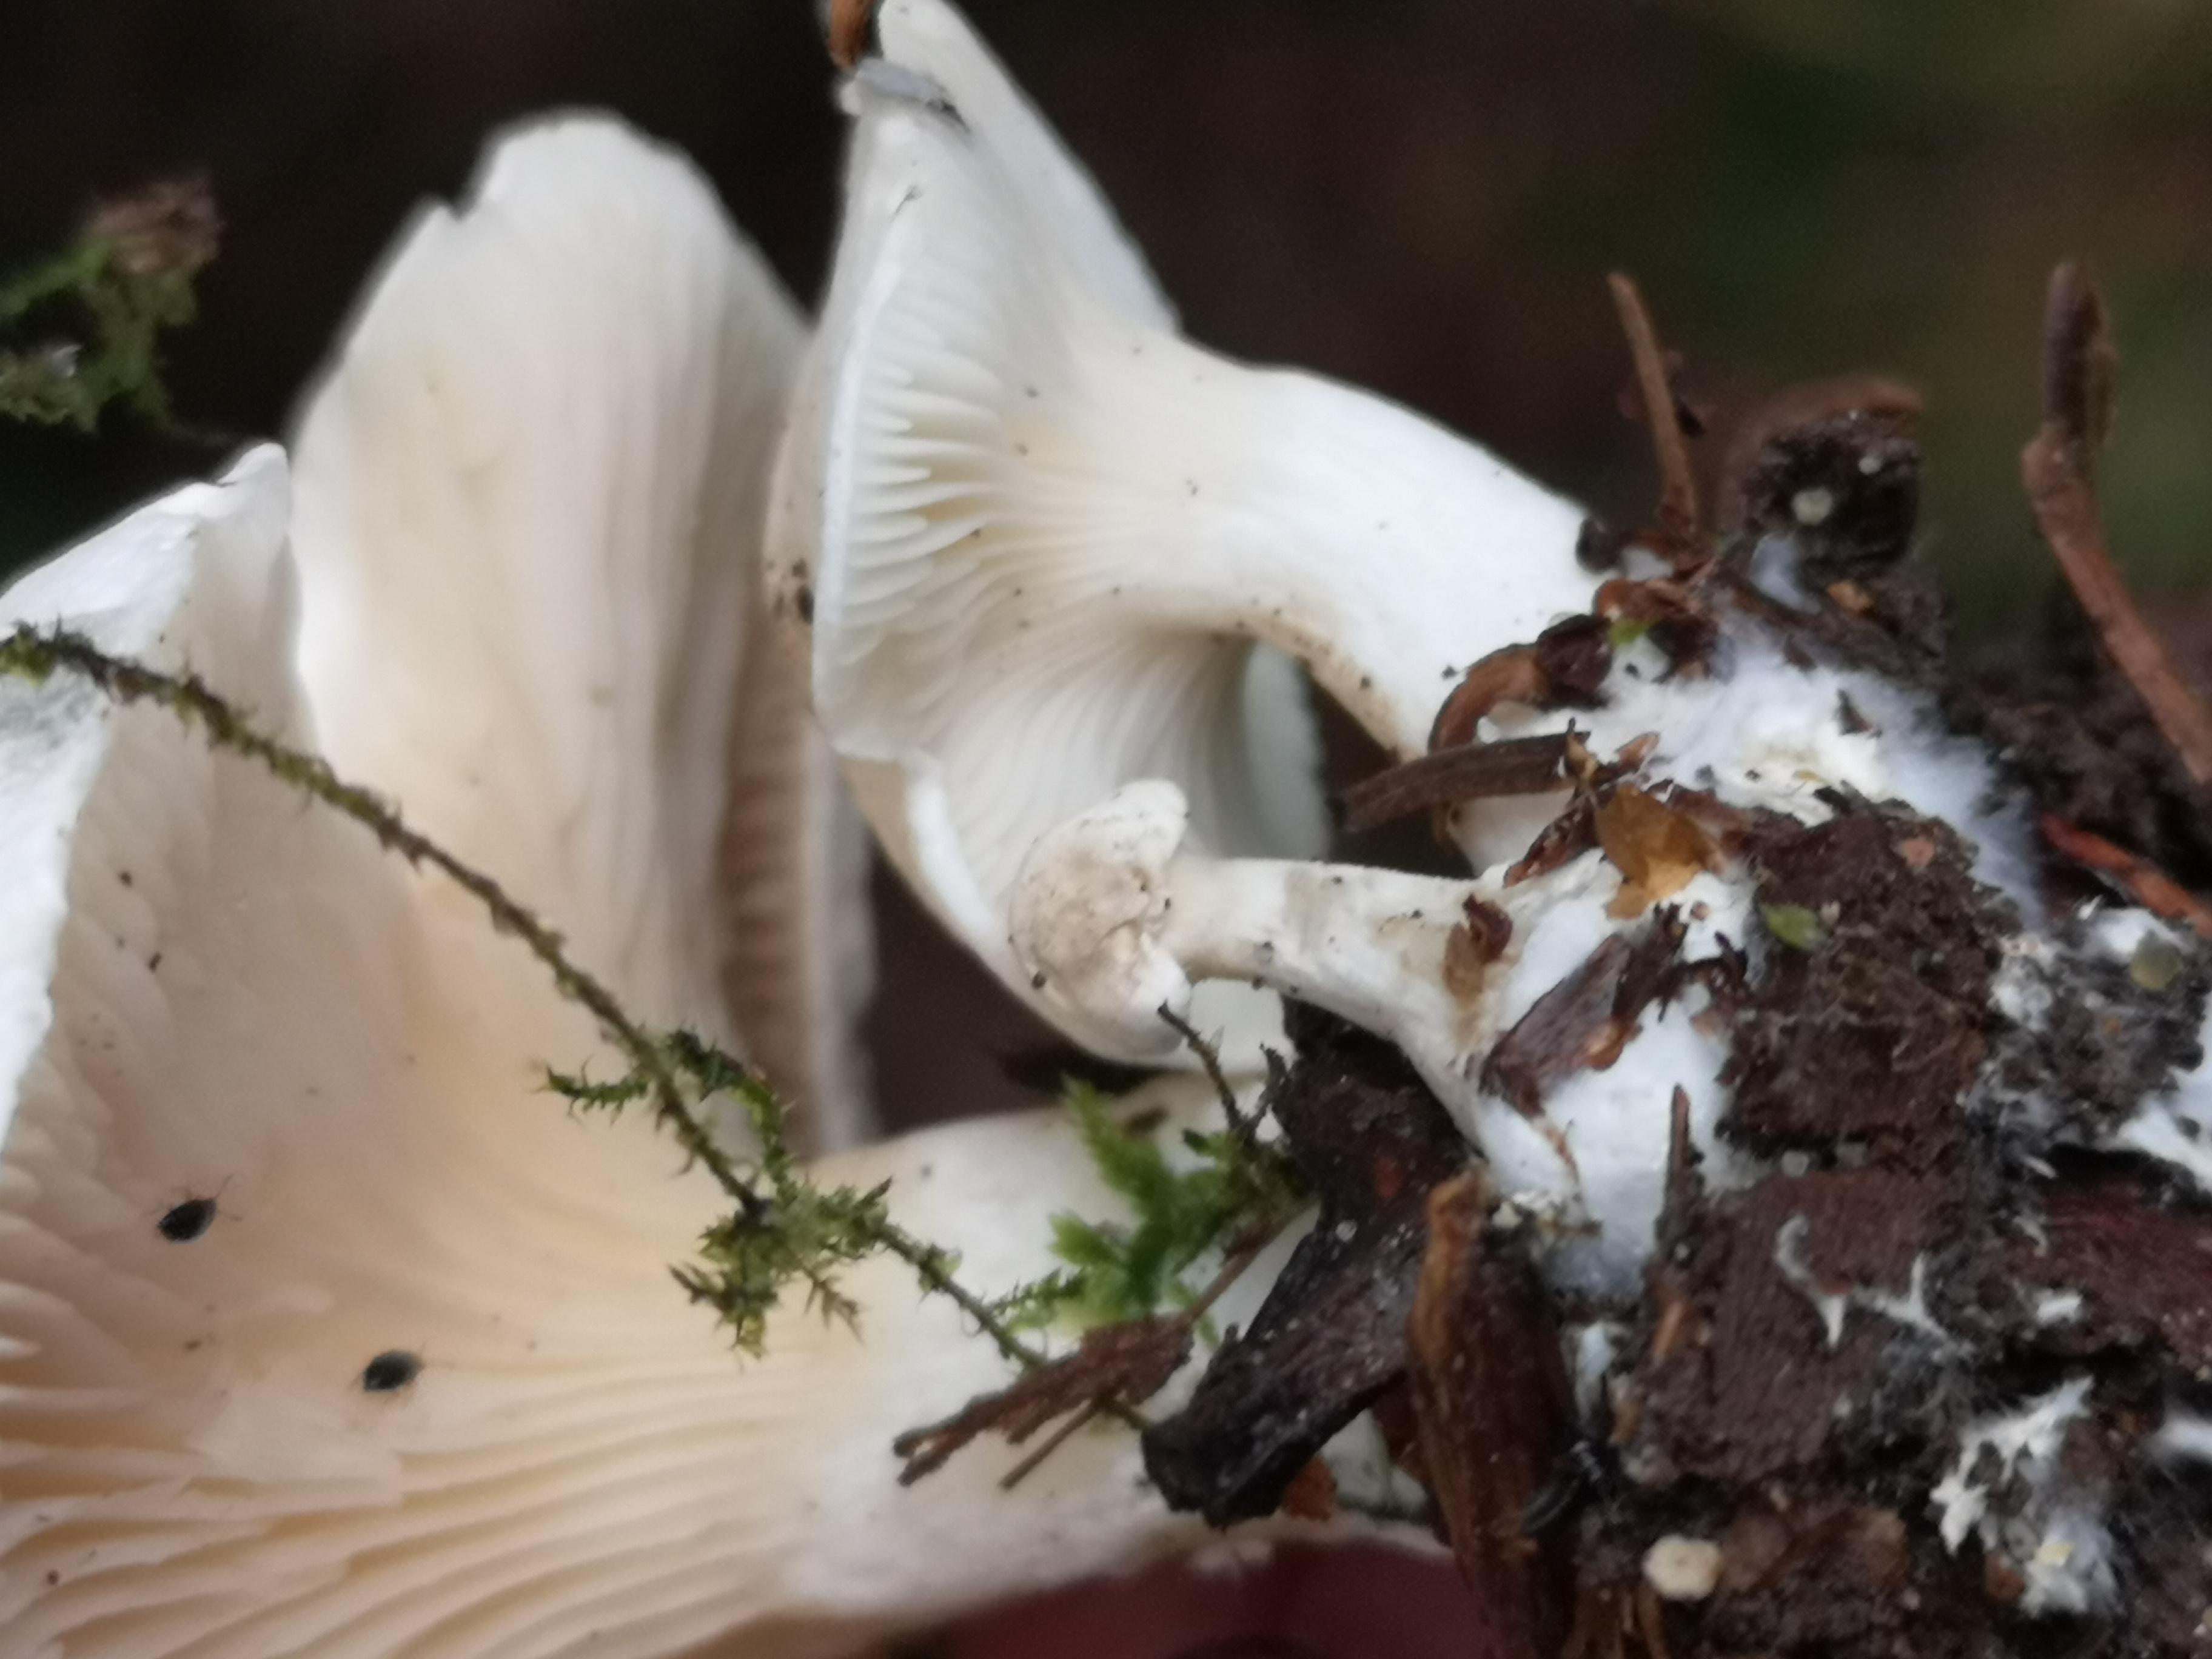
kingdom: Fungi
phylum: Basidiomycota
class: Agaricomycetes
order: Agaricales
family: Entolomataceae
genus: Clitopilus
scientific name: Clitopilus prunulus
